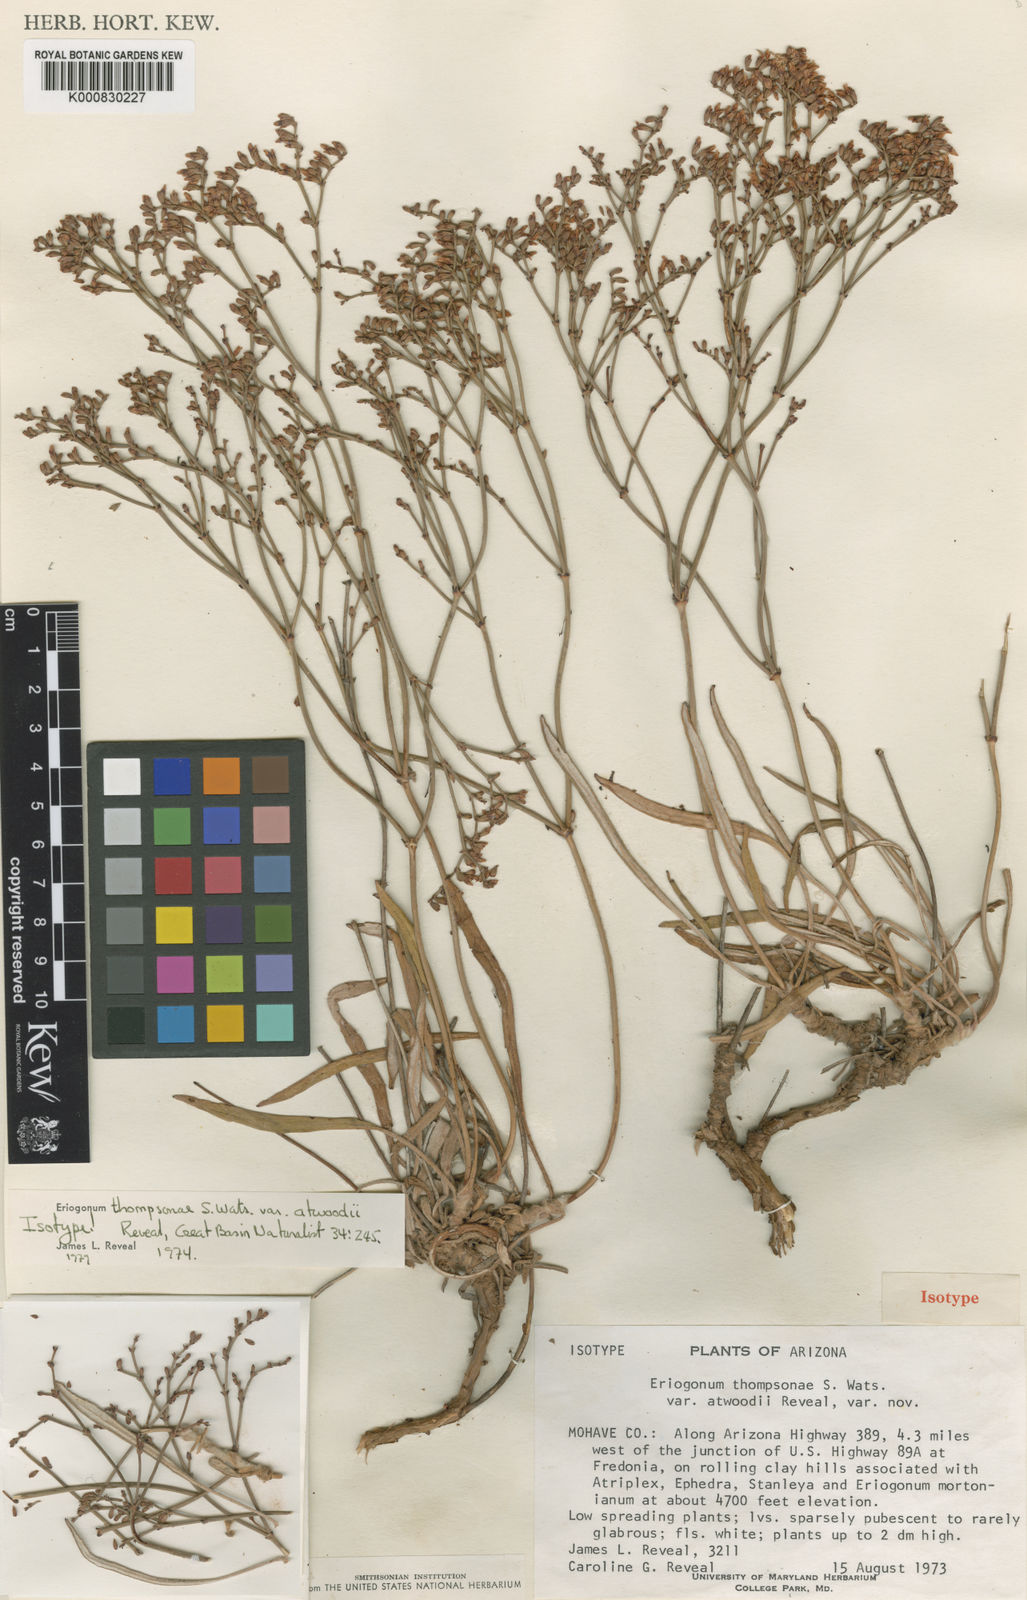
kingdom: Plantae
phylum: Tracheophyta
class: Magnoliopsida
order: Caryophyllales
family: Polygonaceae
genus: Eriogonum
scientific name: Eriogonum thompsoniae
